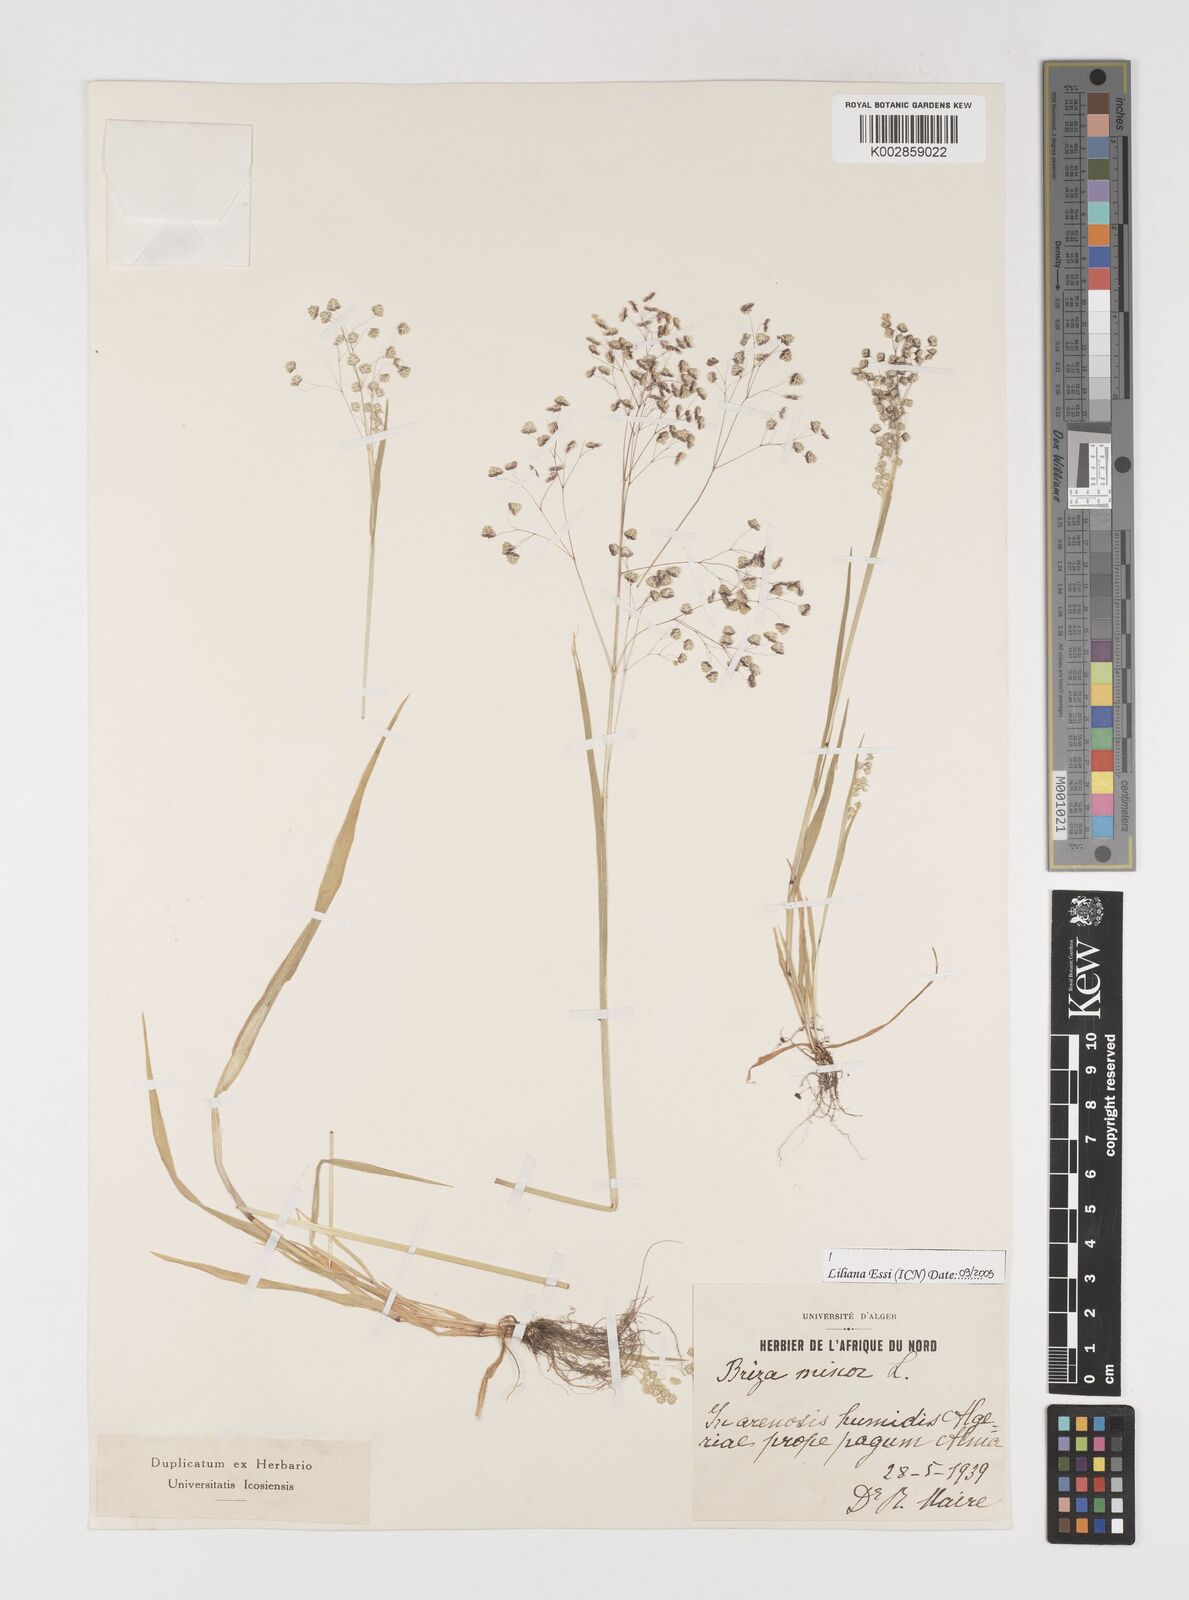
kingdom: Plantae
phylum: Tracheophyta
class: Liliopsida
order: Poales
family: Poaceae
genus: Briza
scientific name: Briza minor
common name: Lesser quaking-grass
